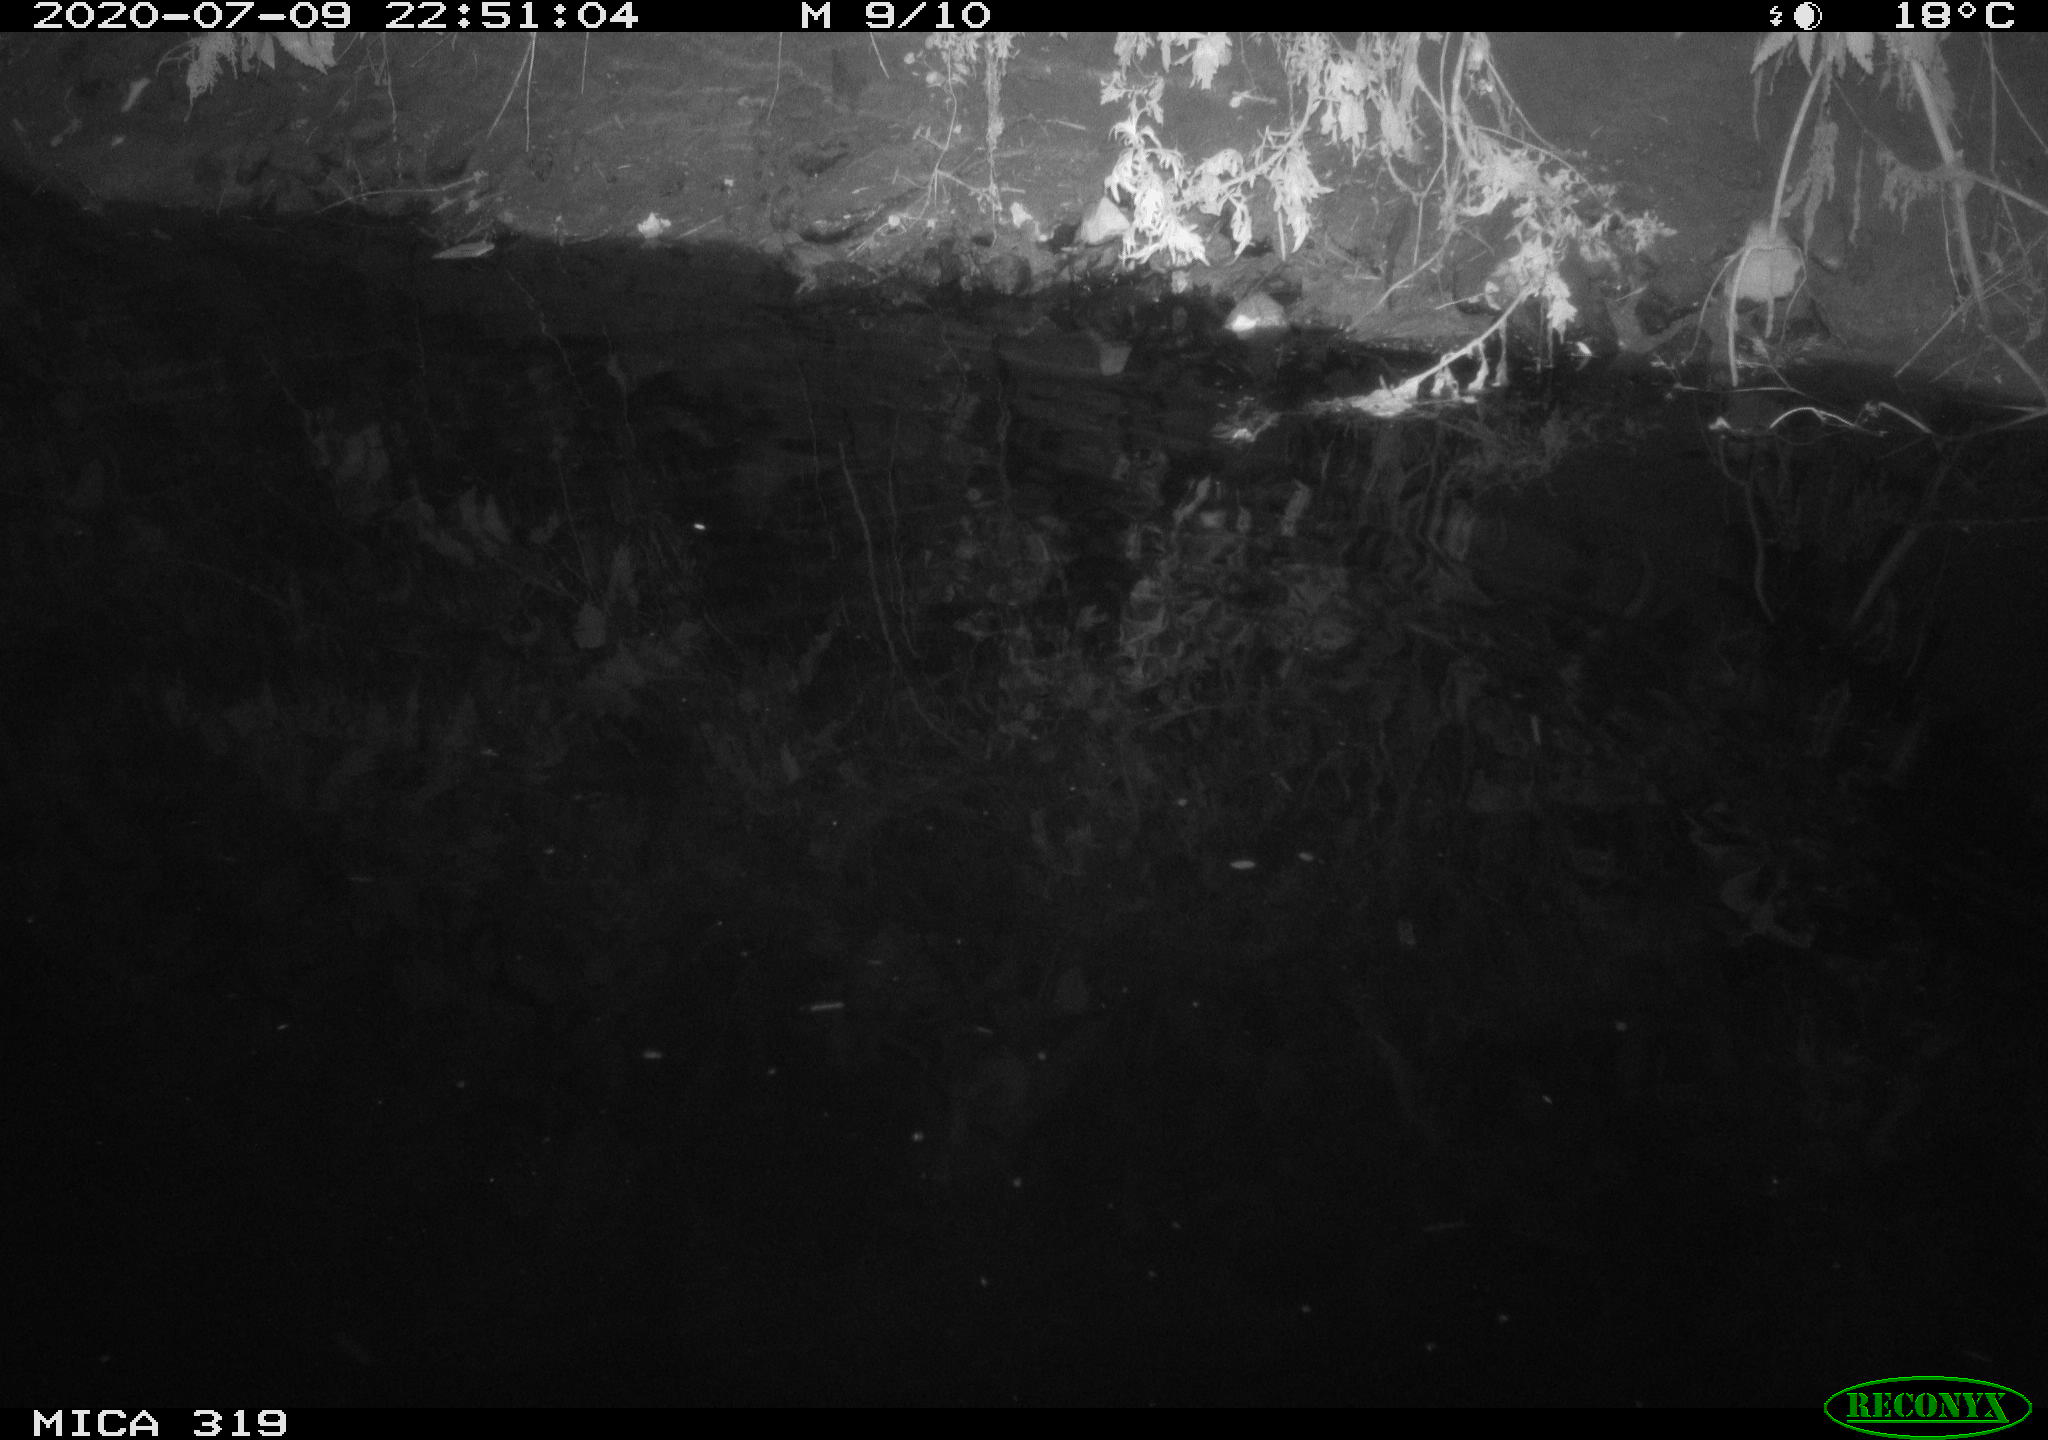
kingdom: Animalia
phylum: Chordata
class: Aves
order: Anseriformes
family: Anatidae
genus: Anas
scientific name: Anas platyrhynchos
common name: Mallard
